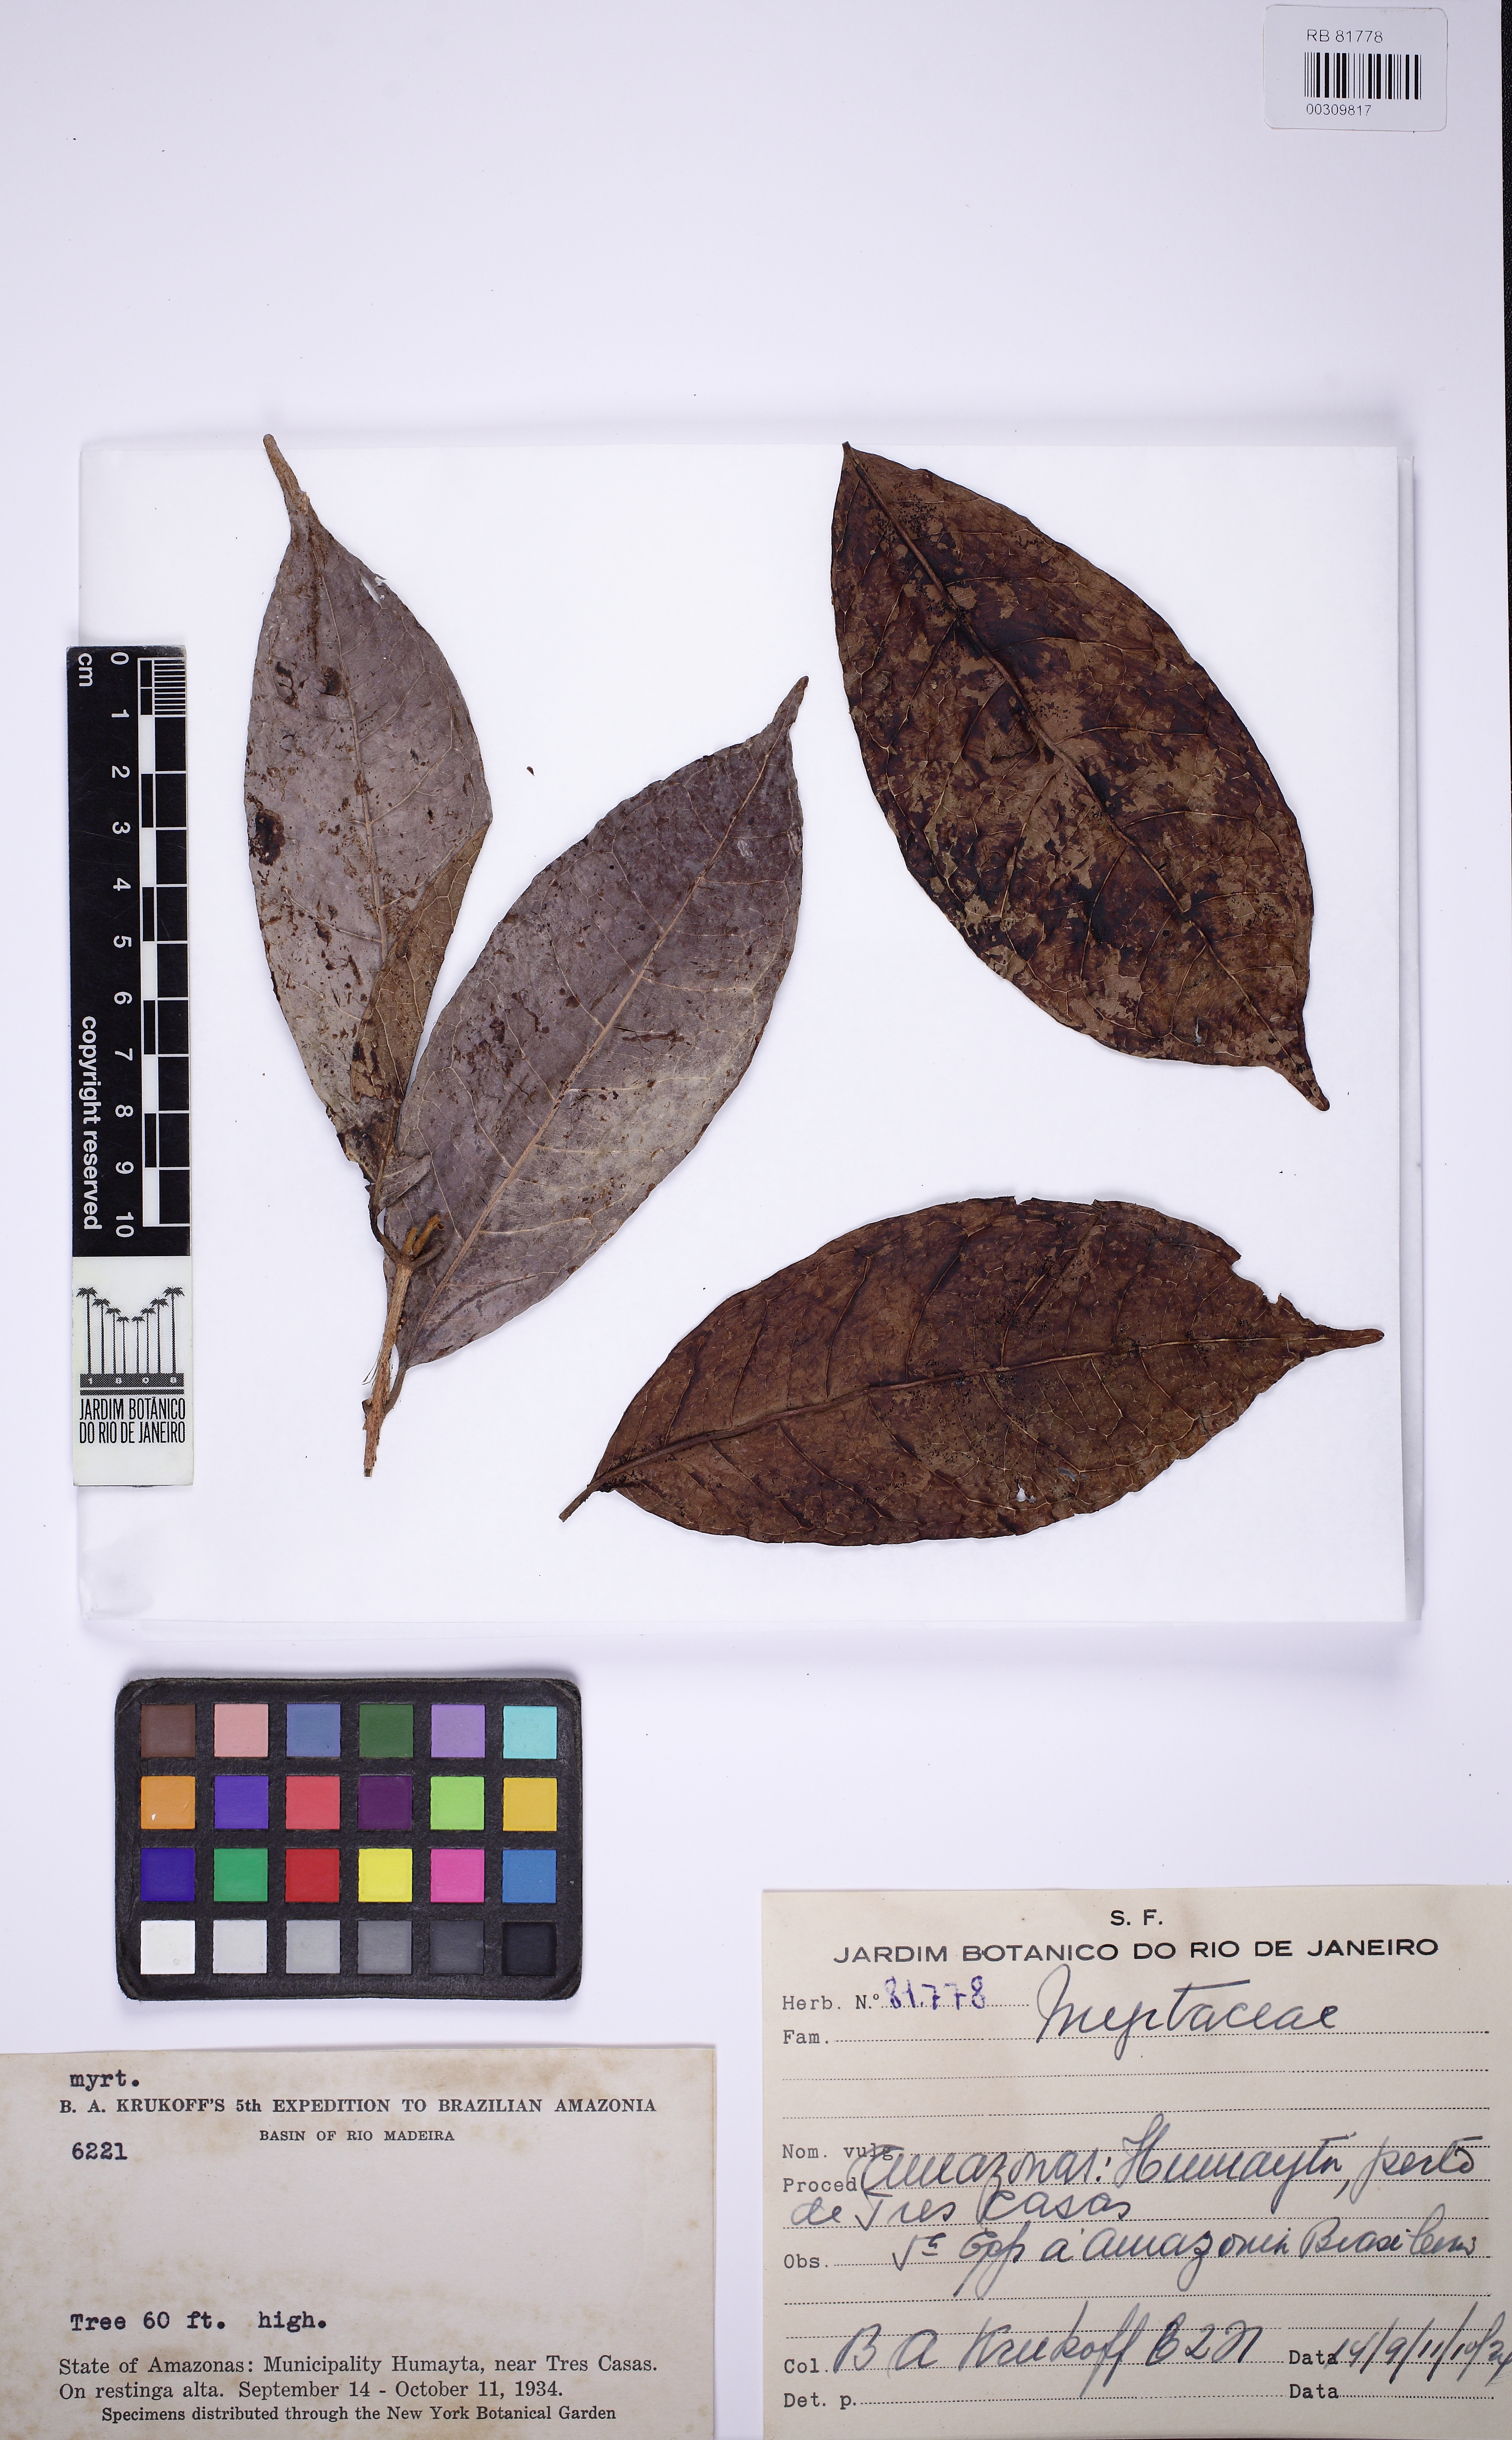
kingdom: Plantae
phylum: Tracheophyta
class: Magnoliopsida
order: Myrtales
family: Myrtaceae
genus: Myrcia
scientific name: Myrcia cuspidata
